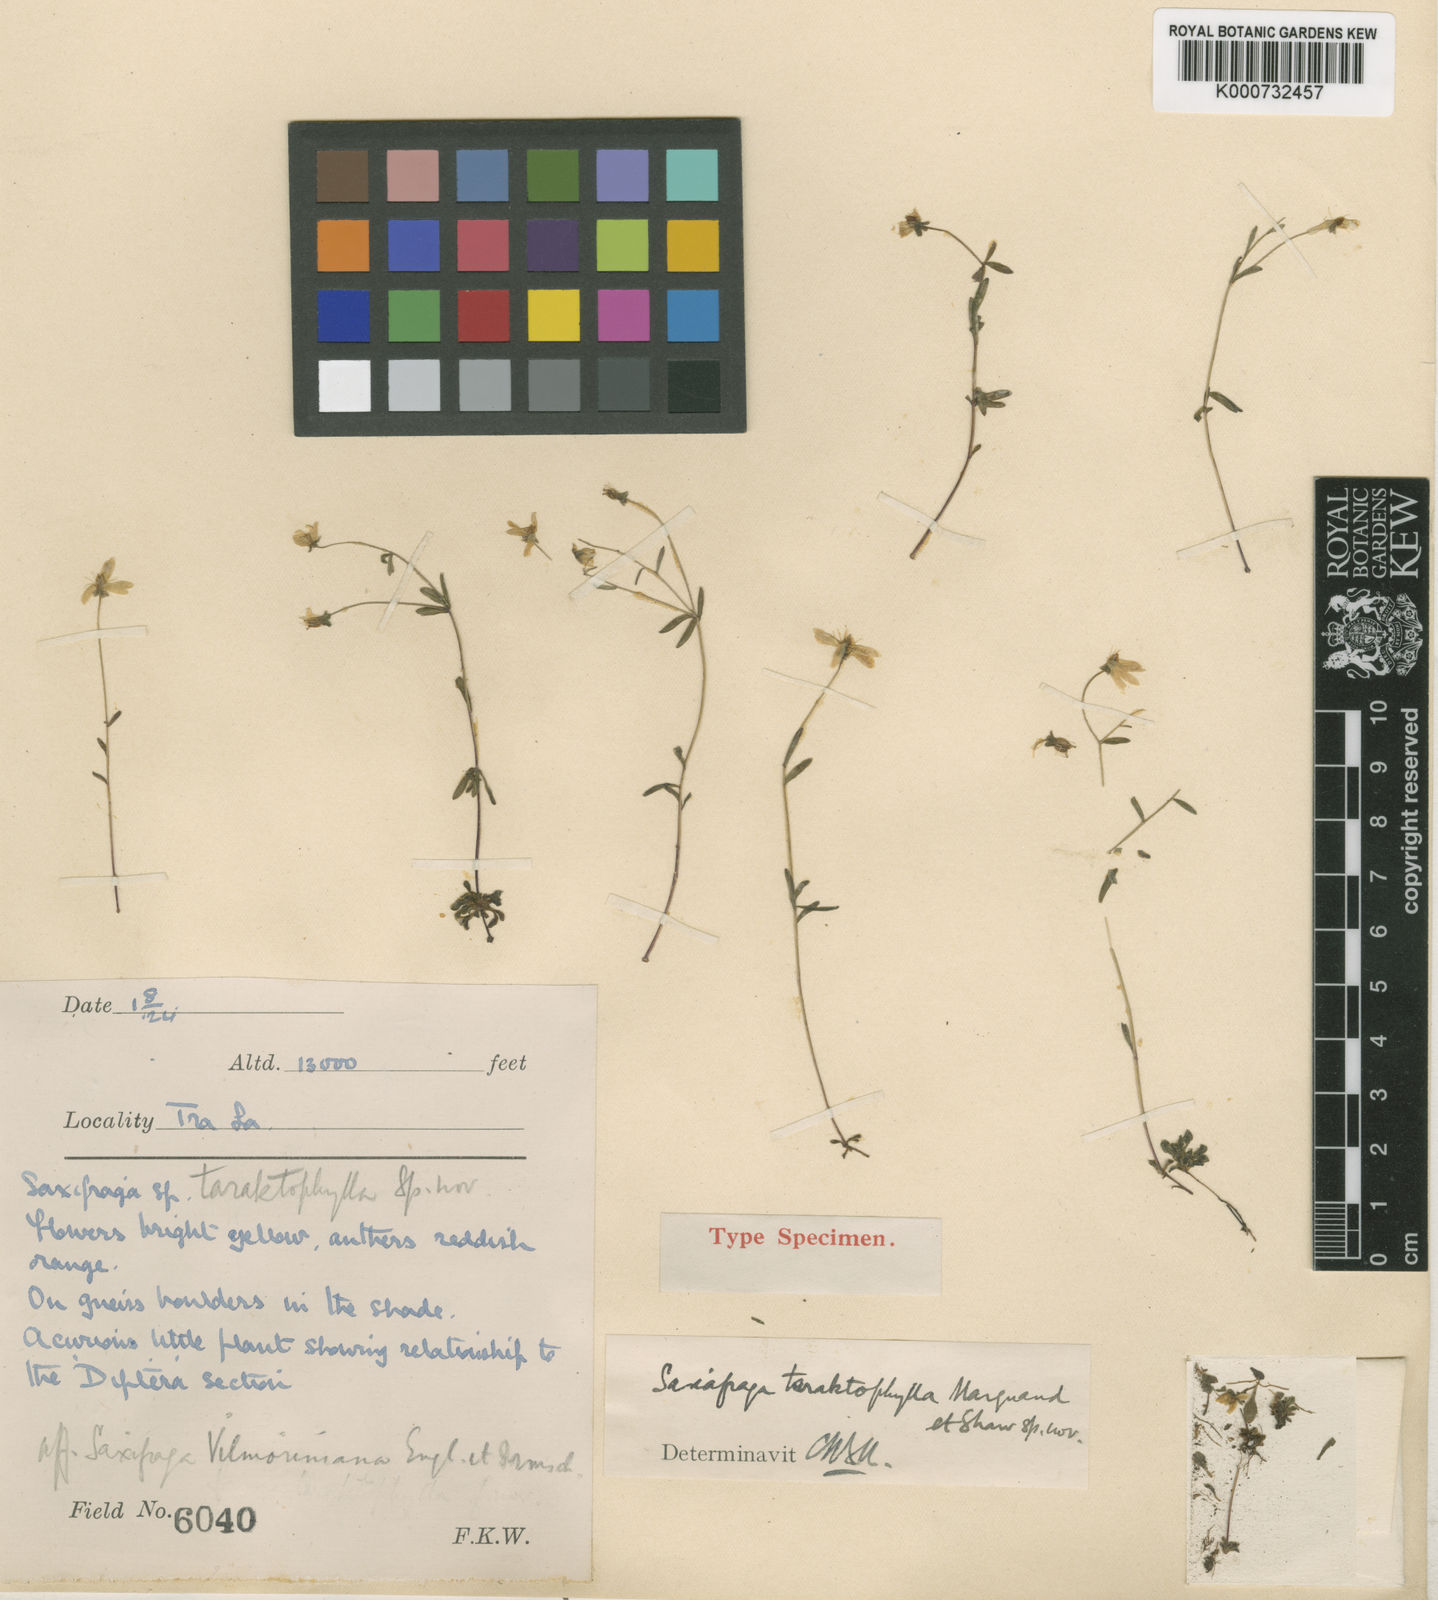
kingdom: Plantae
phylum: Tracheophyta
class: Magnoliopsida
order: Saxifragales
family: Saxifragaceae
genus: Saxifraga
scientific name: Saxifraga taraktophylla
